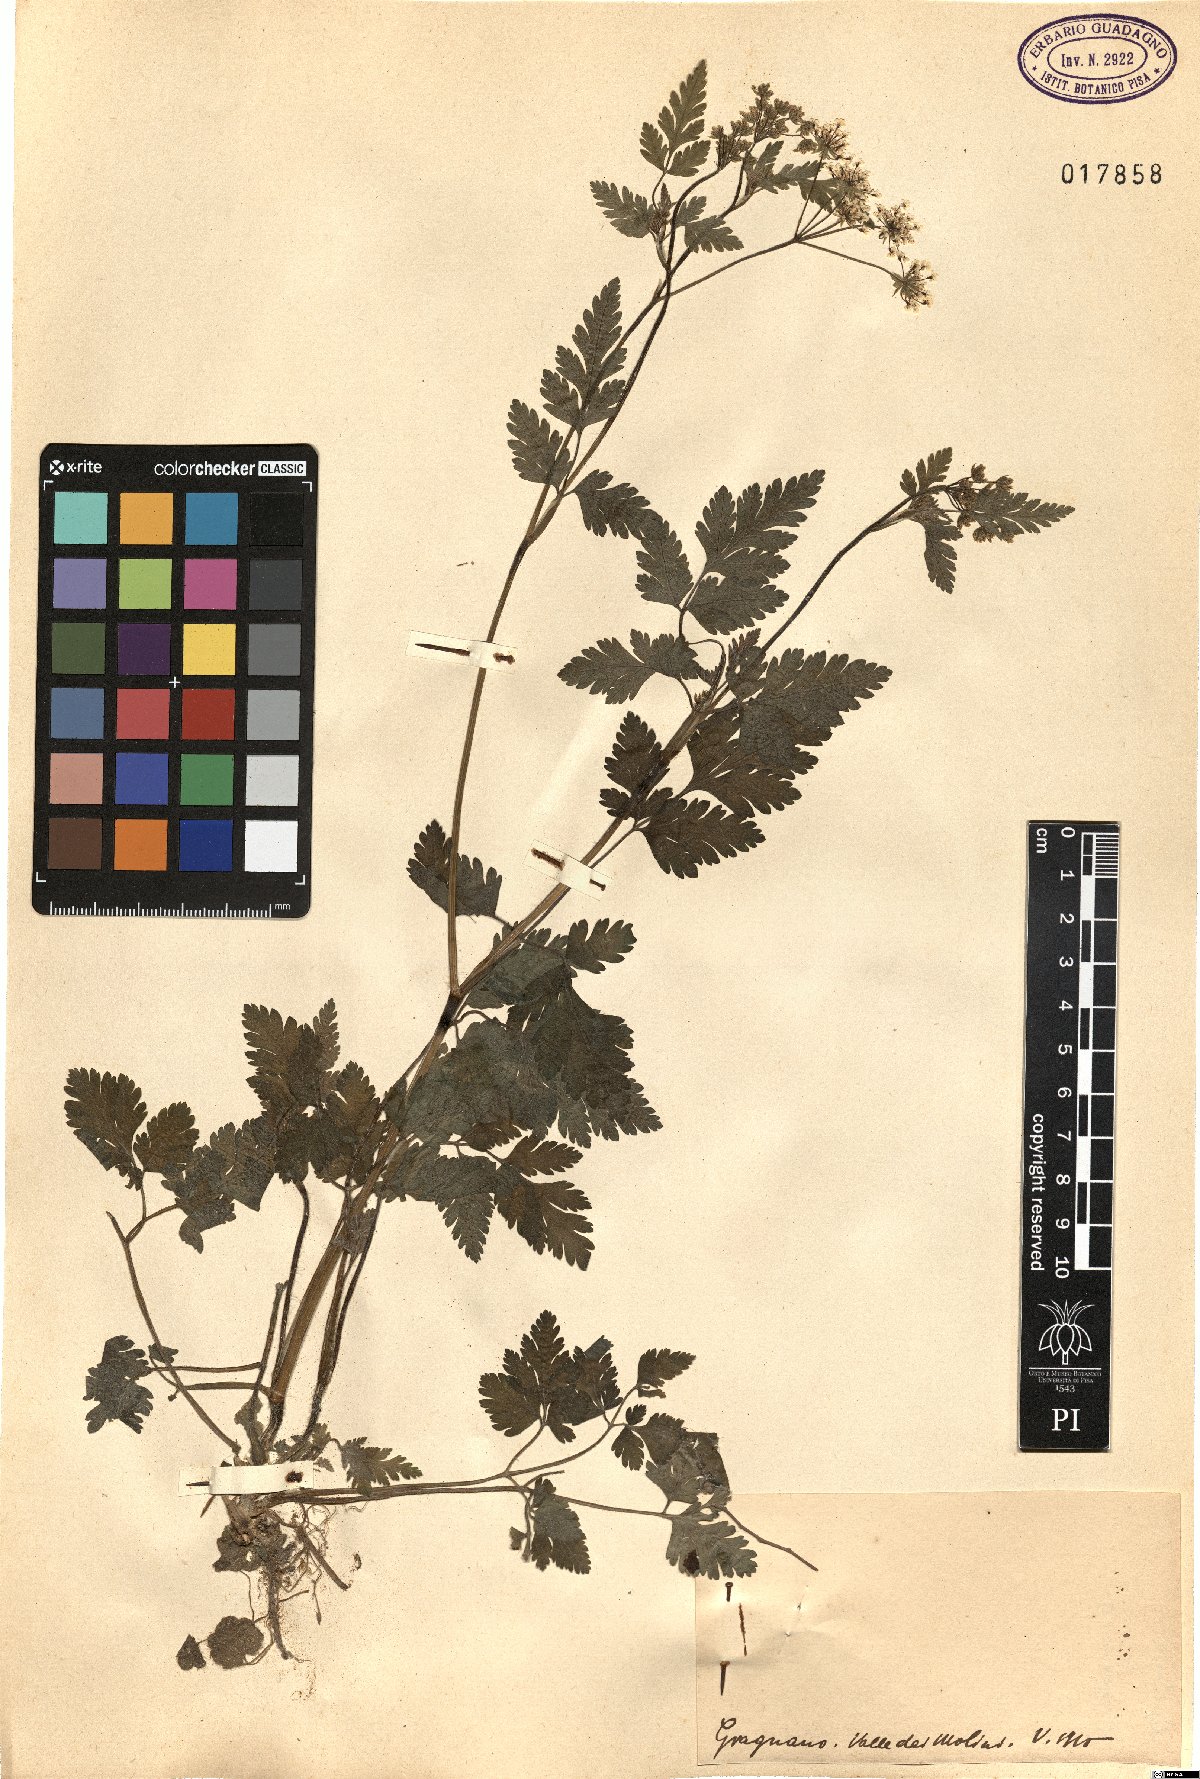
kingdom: Plantae
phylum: Tracheophyta
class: Magnoliopsida
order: Apiales
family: Apiaceae
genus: Chaerophyllum
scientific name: Chaerophyllum
